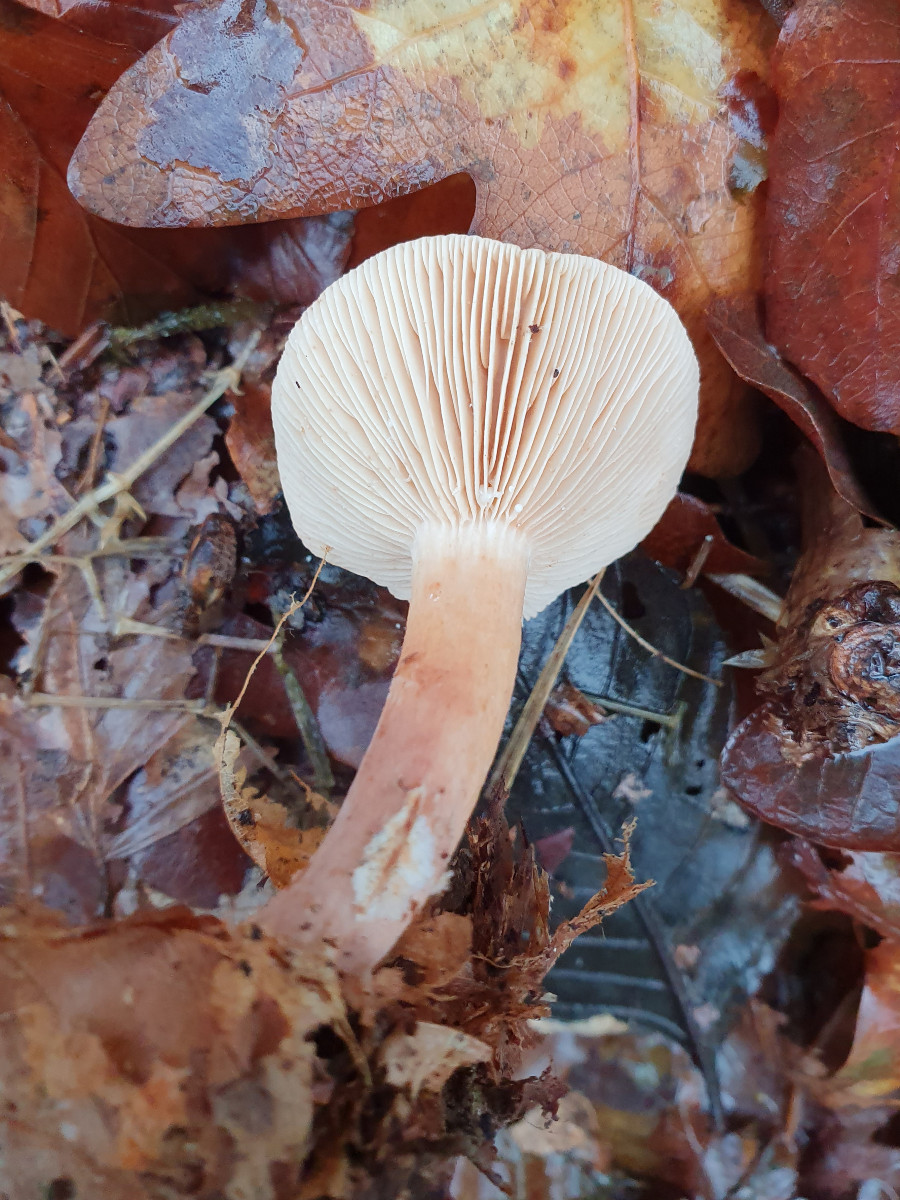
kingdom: Fungi
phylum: Basidiomycota
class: Agaricomycetes
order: Russulales
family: Russulaceae
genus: Lactarius
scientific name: Lactarius subdulcis
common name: sødlig mælkehat
